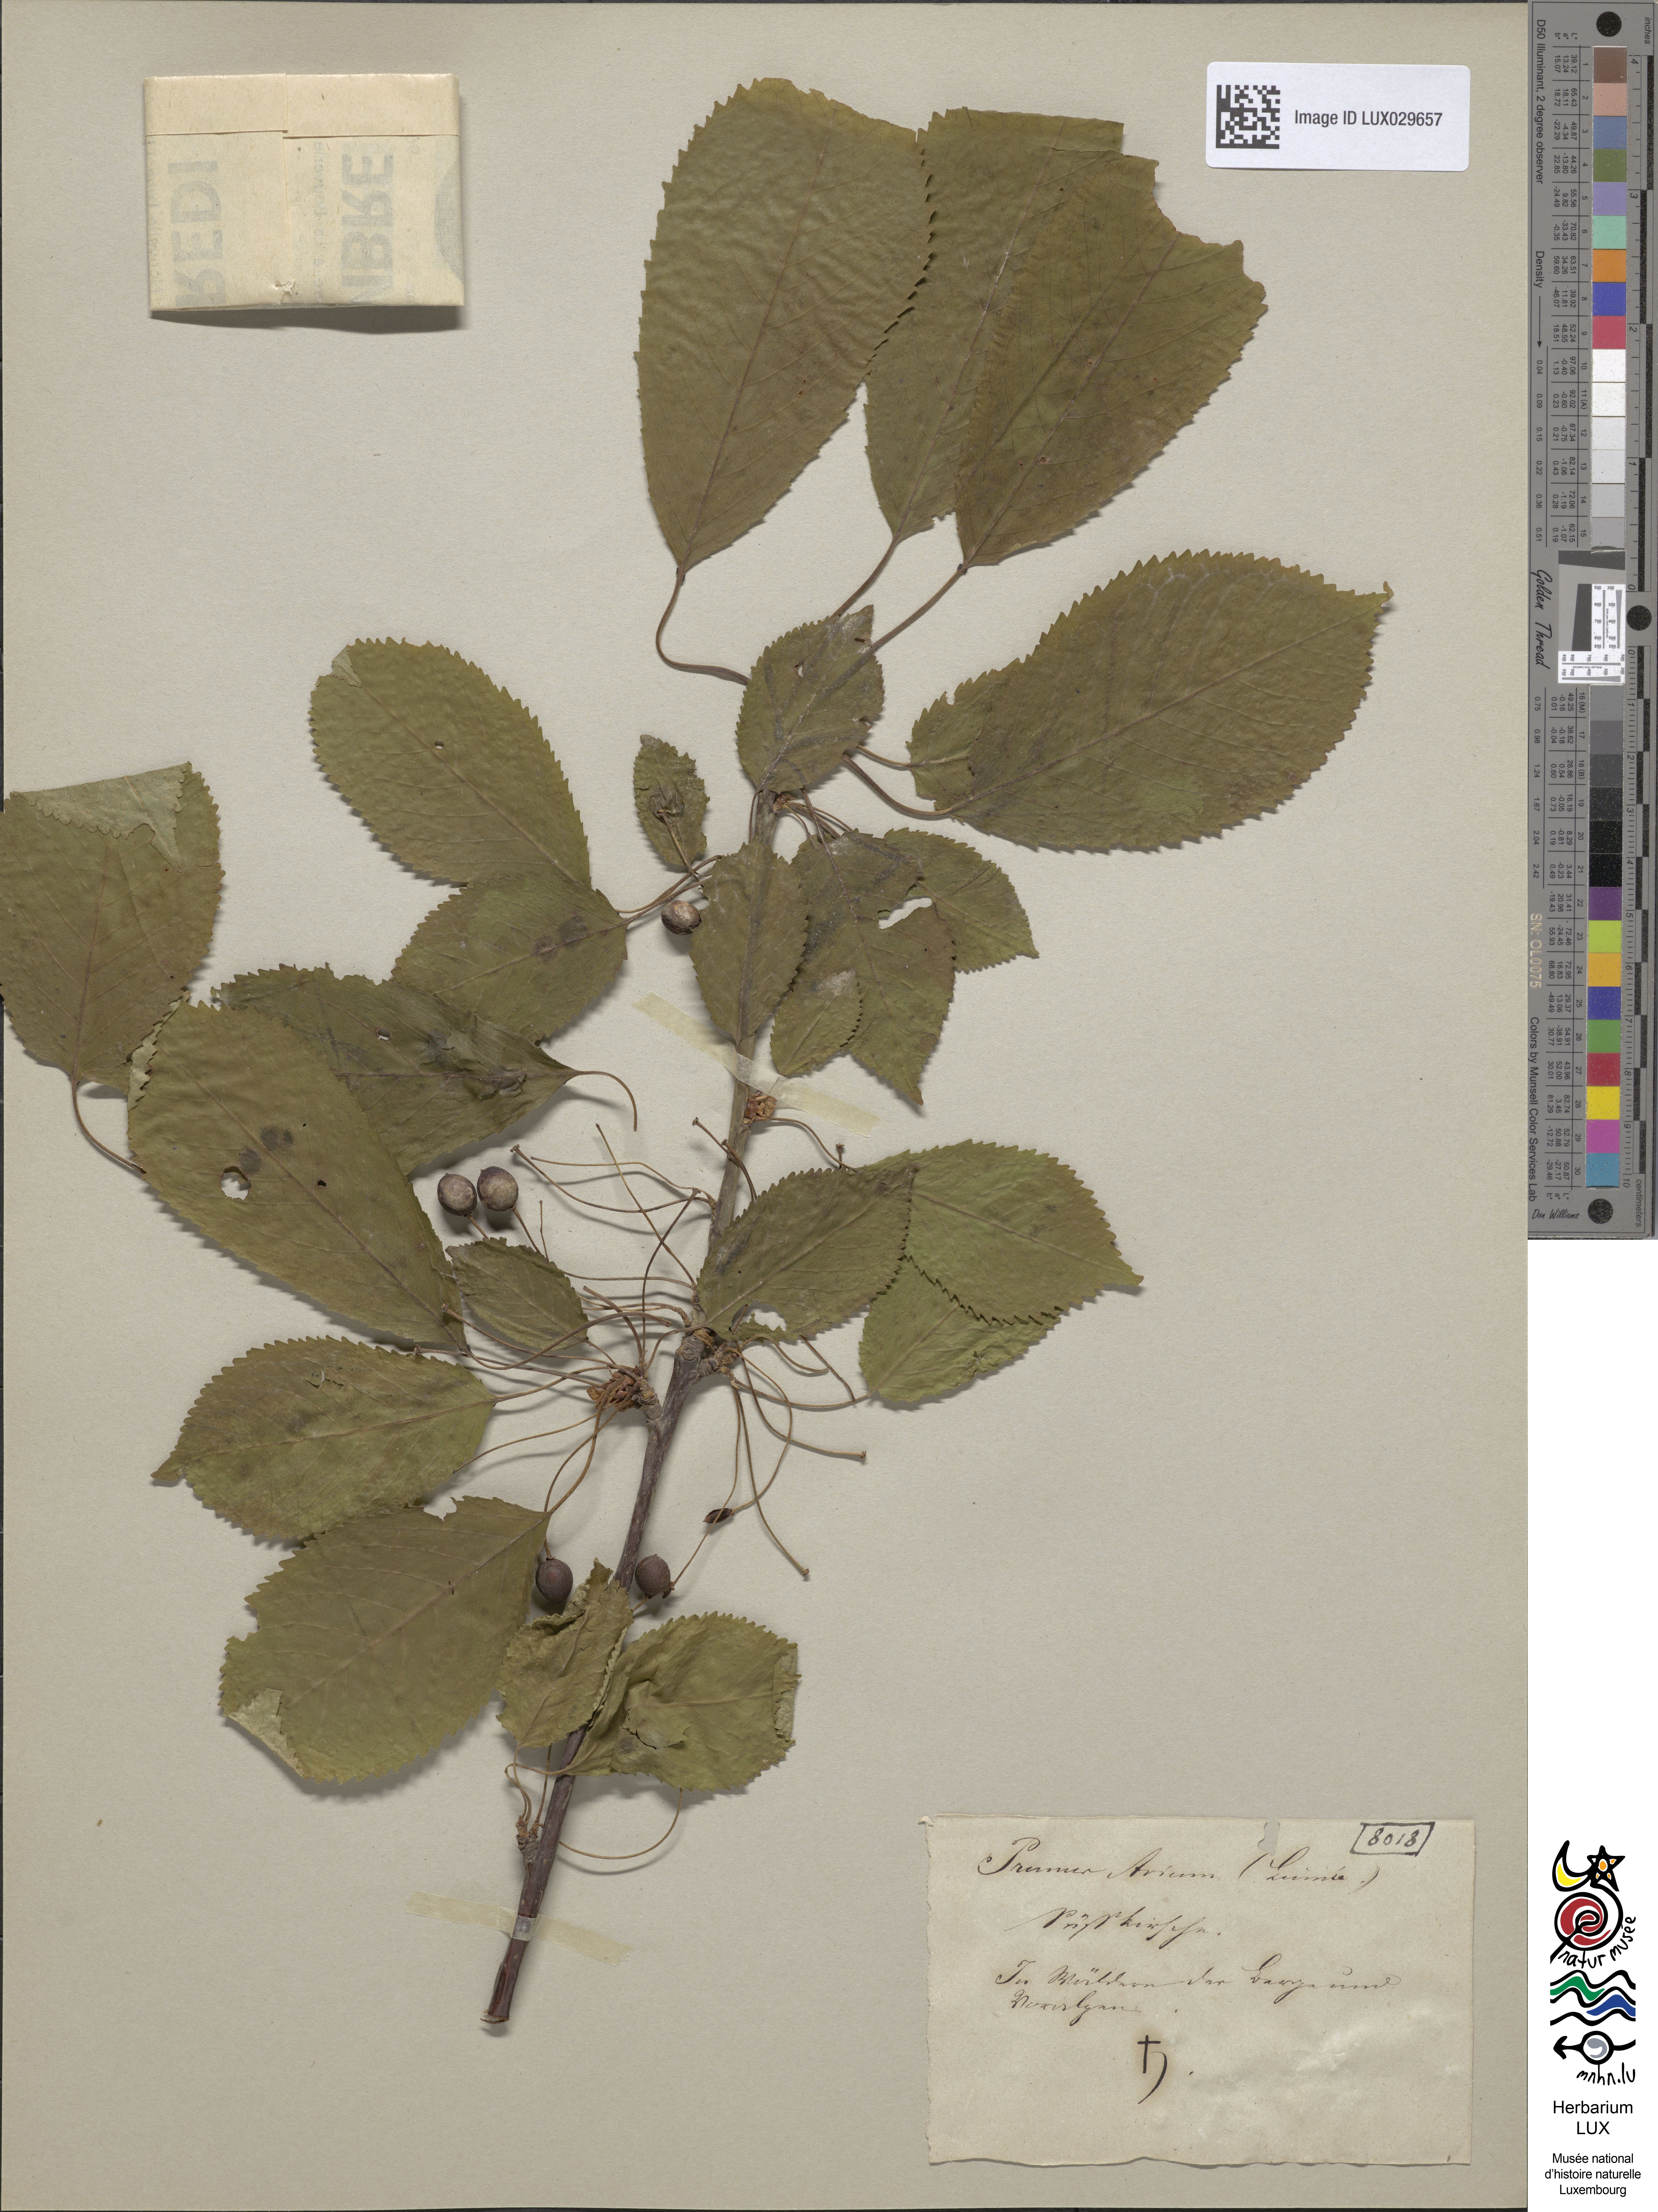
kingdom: Plantae
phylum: Tracheophyta
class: Magnoliopsida
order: Rosales
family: Rosaceae
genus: Prunus
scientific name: Prunus avium
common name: Sweet cherry
